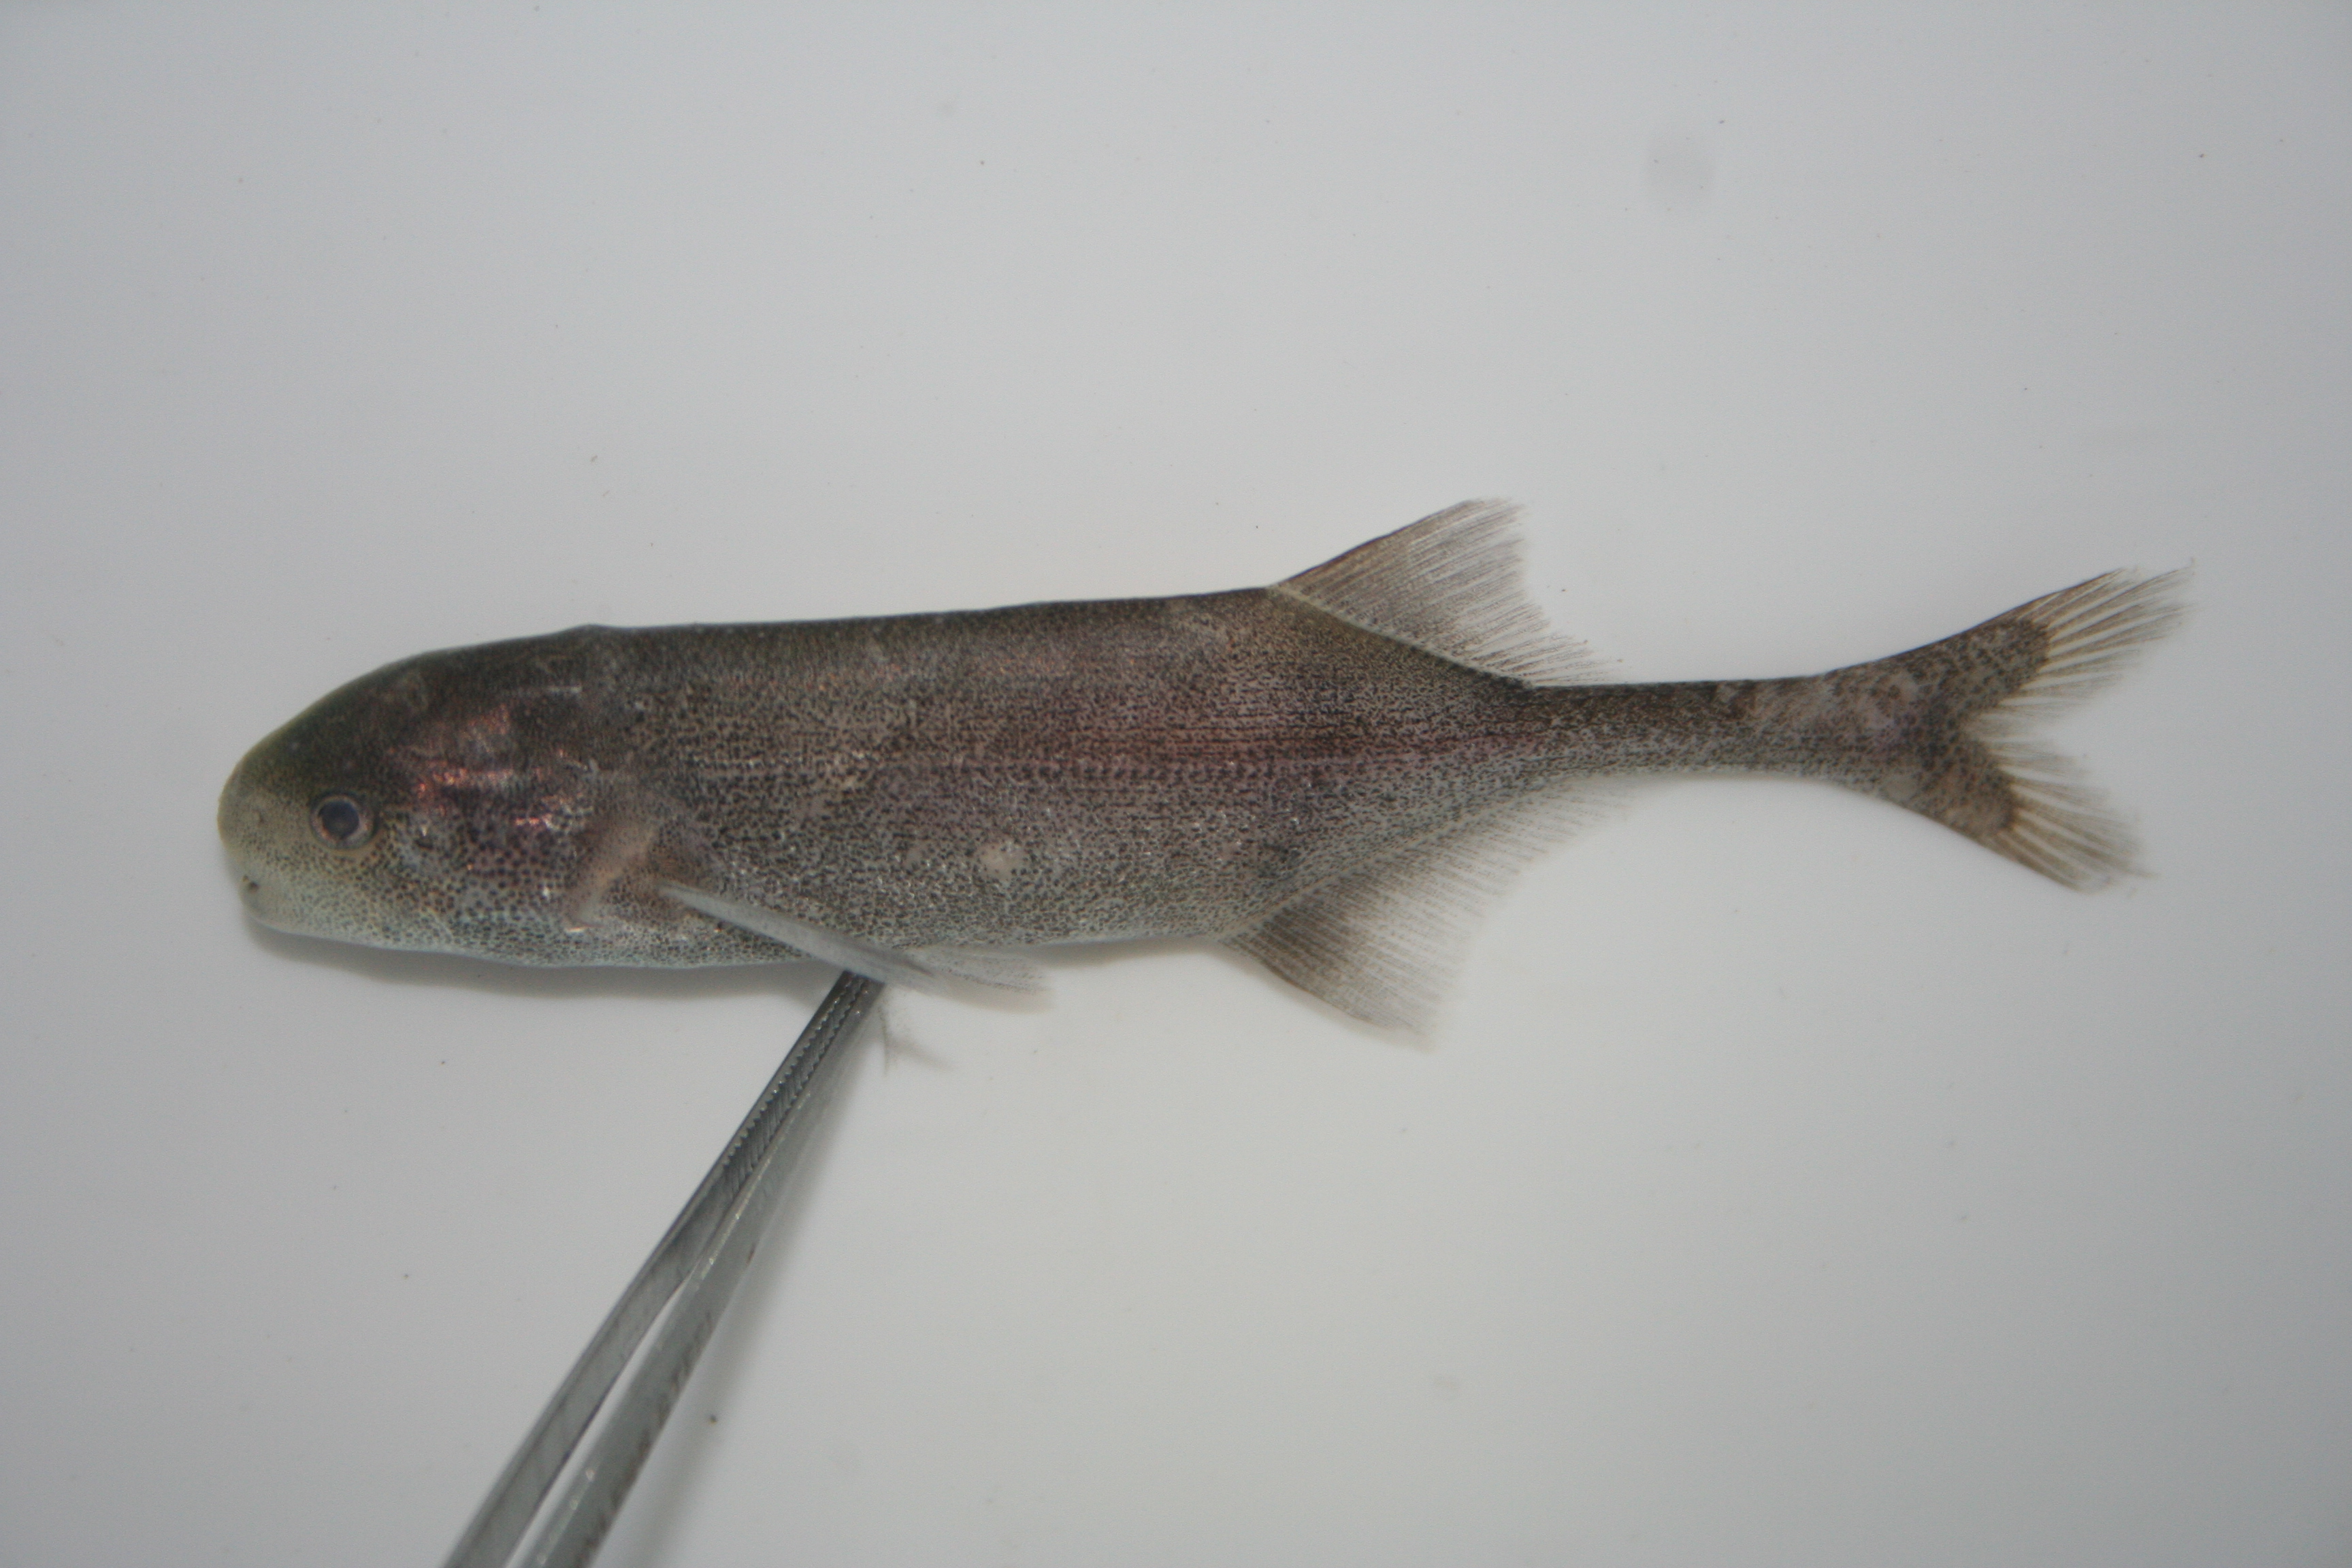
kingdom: Animalia
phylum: Chordata
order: Osteoglossiformes
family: Mormyridae
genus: Hippopotamyrus
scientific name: Hippopotamyrus
